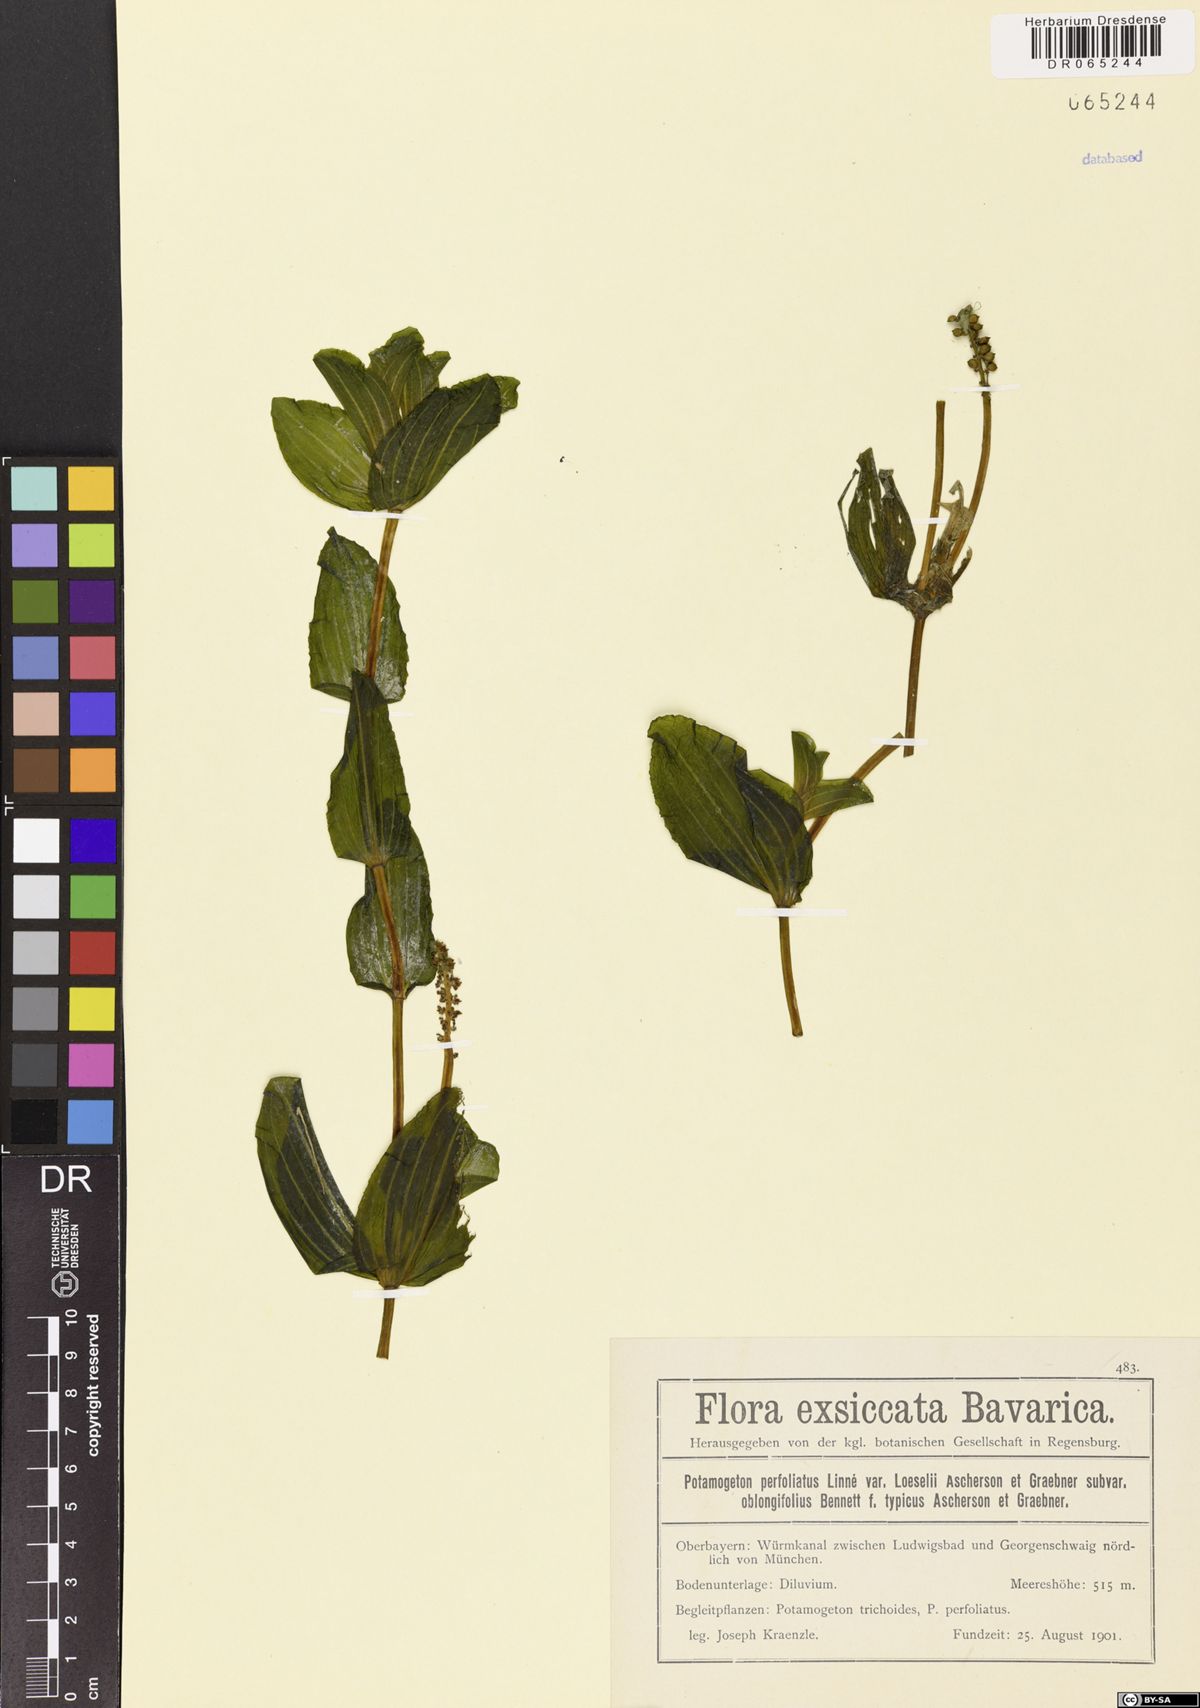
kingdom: Plantae
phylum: Tracheophyta
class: Liliopsida
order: Alismatales
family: Potamogetonaceae
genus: Potamogeton
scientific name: Potamogeton perfoliatus
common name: Perfoliate pondweed
